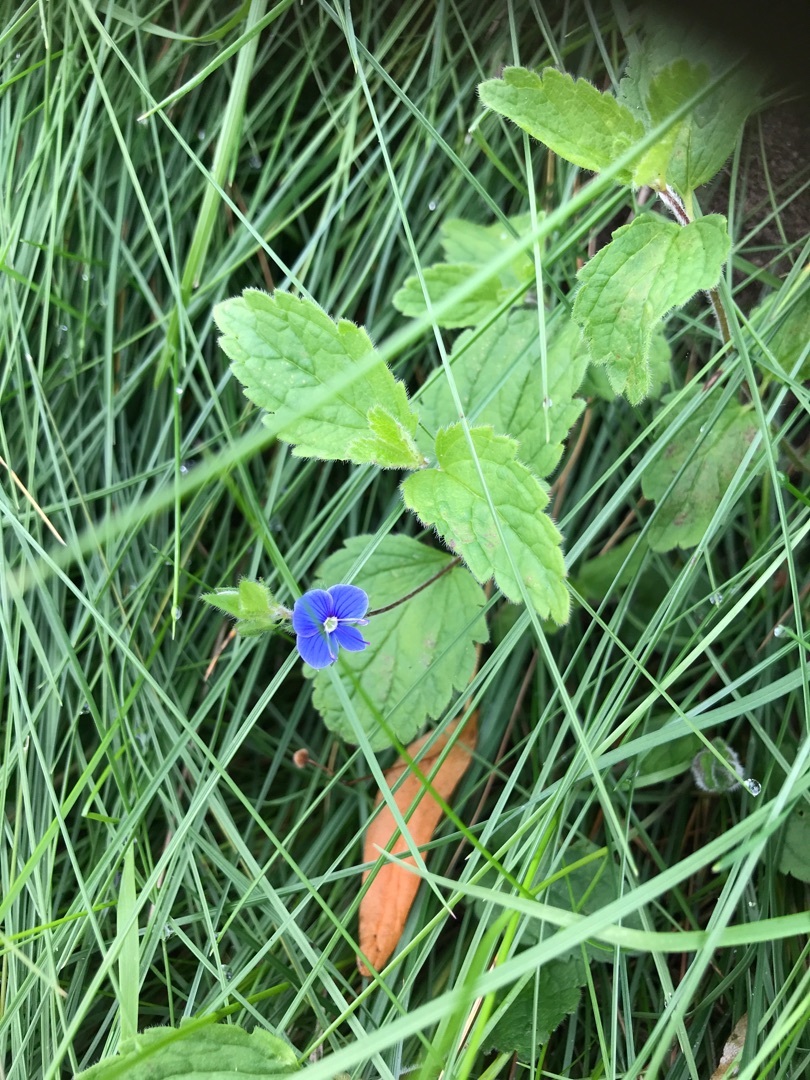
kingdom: Plantae
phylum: Tracheophyta
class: Magnoliopsida
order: Lamiales
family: Plantaginaceae
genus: Veronica
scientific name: Veronica chamaedrys
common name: Tveskægget ærenpris
